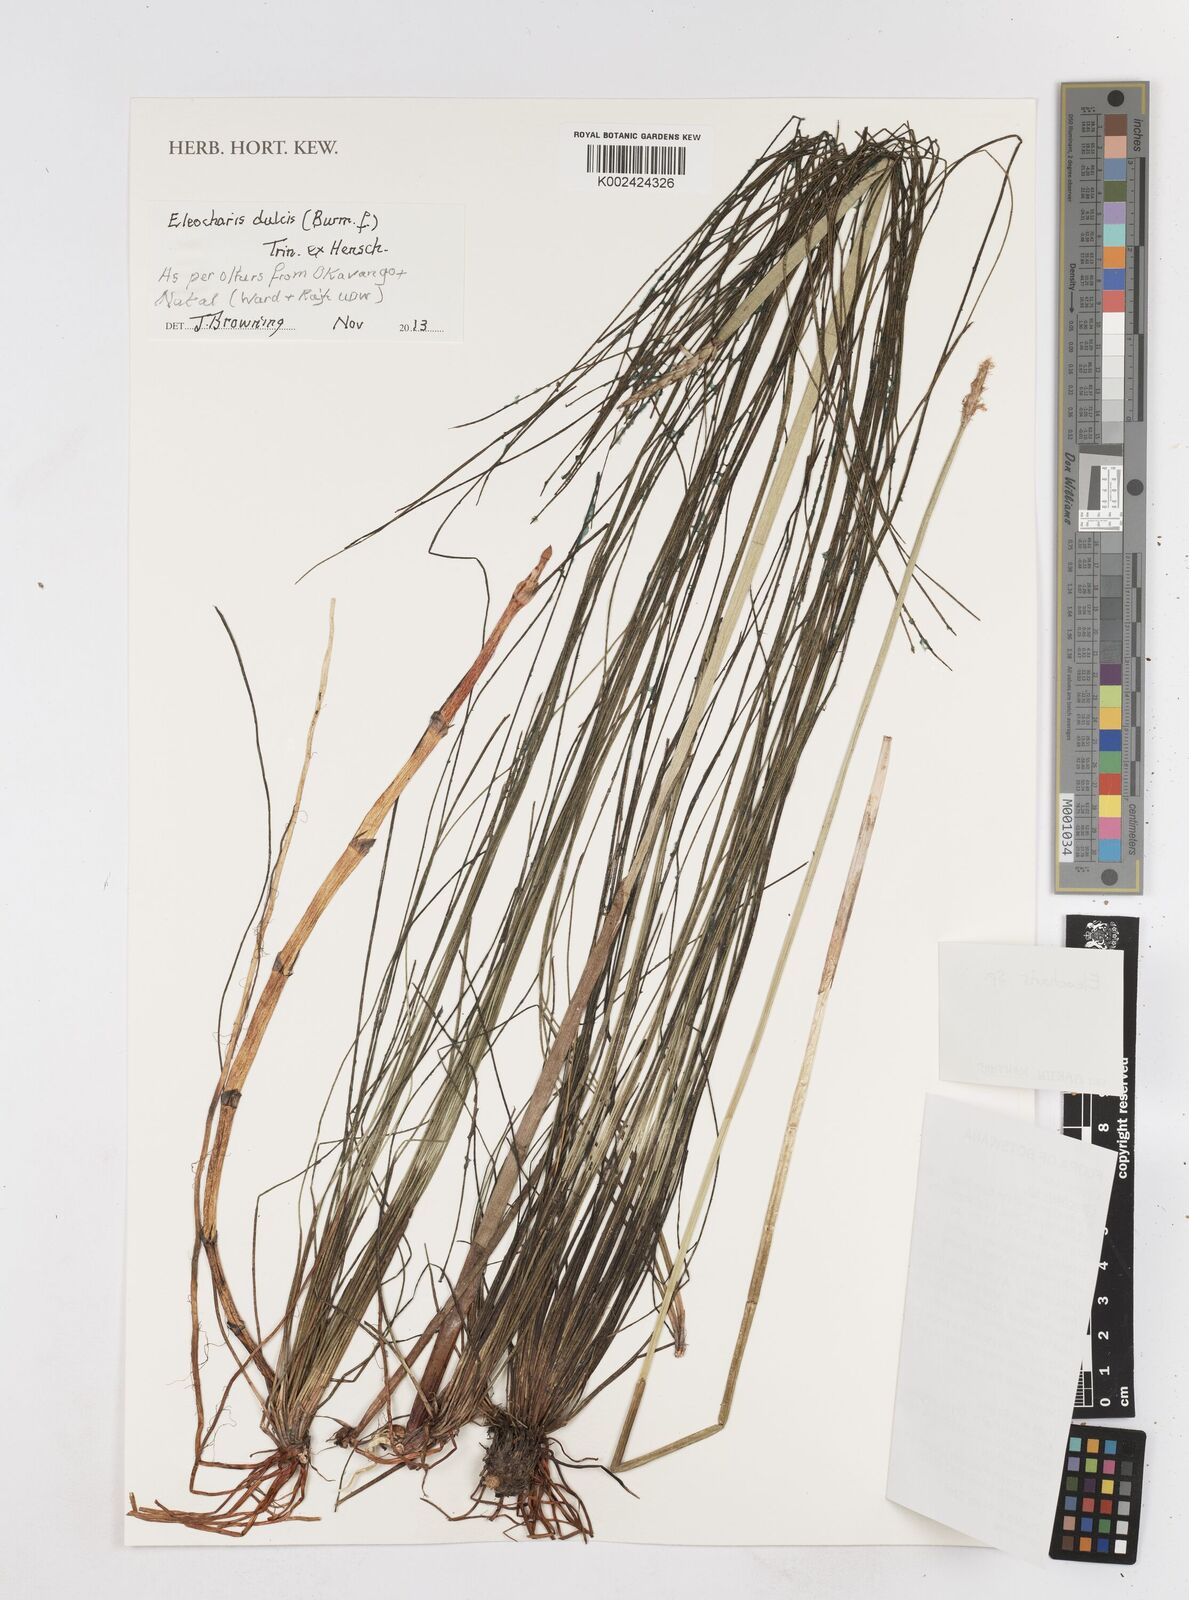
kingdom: Plantae
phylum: Tracheophyta
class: Liliopsida
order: Poales
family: Cyperaceae
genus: Eleocharis
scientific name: Eleocharis dulcis
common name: Chinese water chestnut
